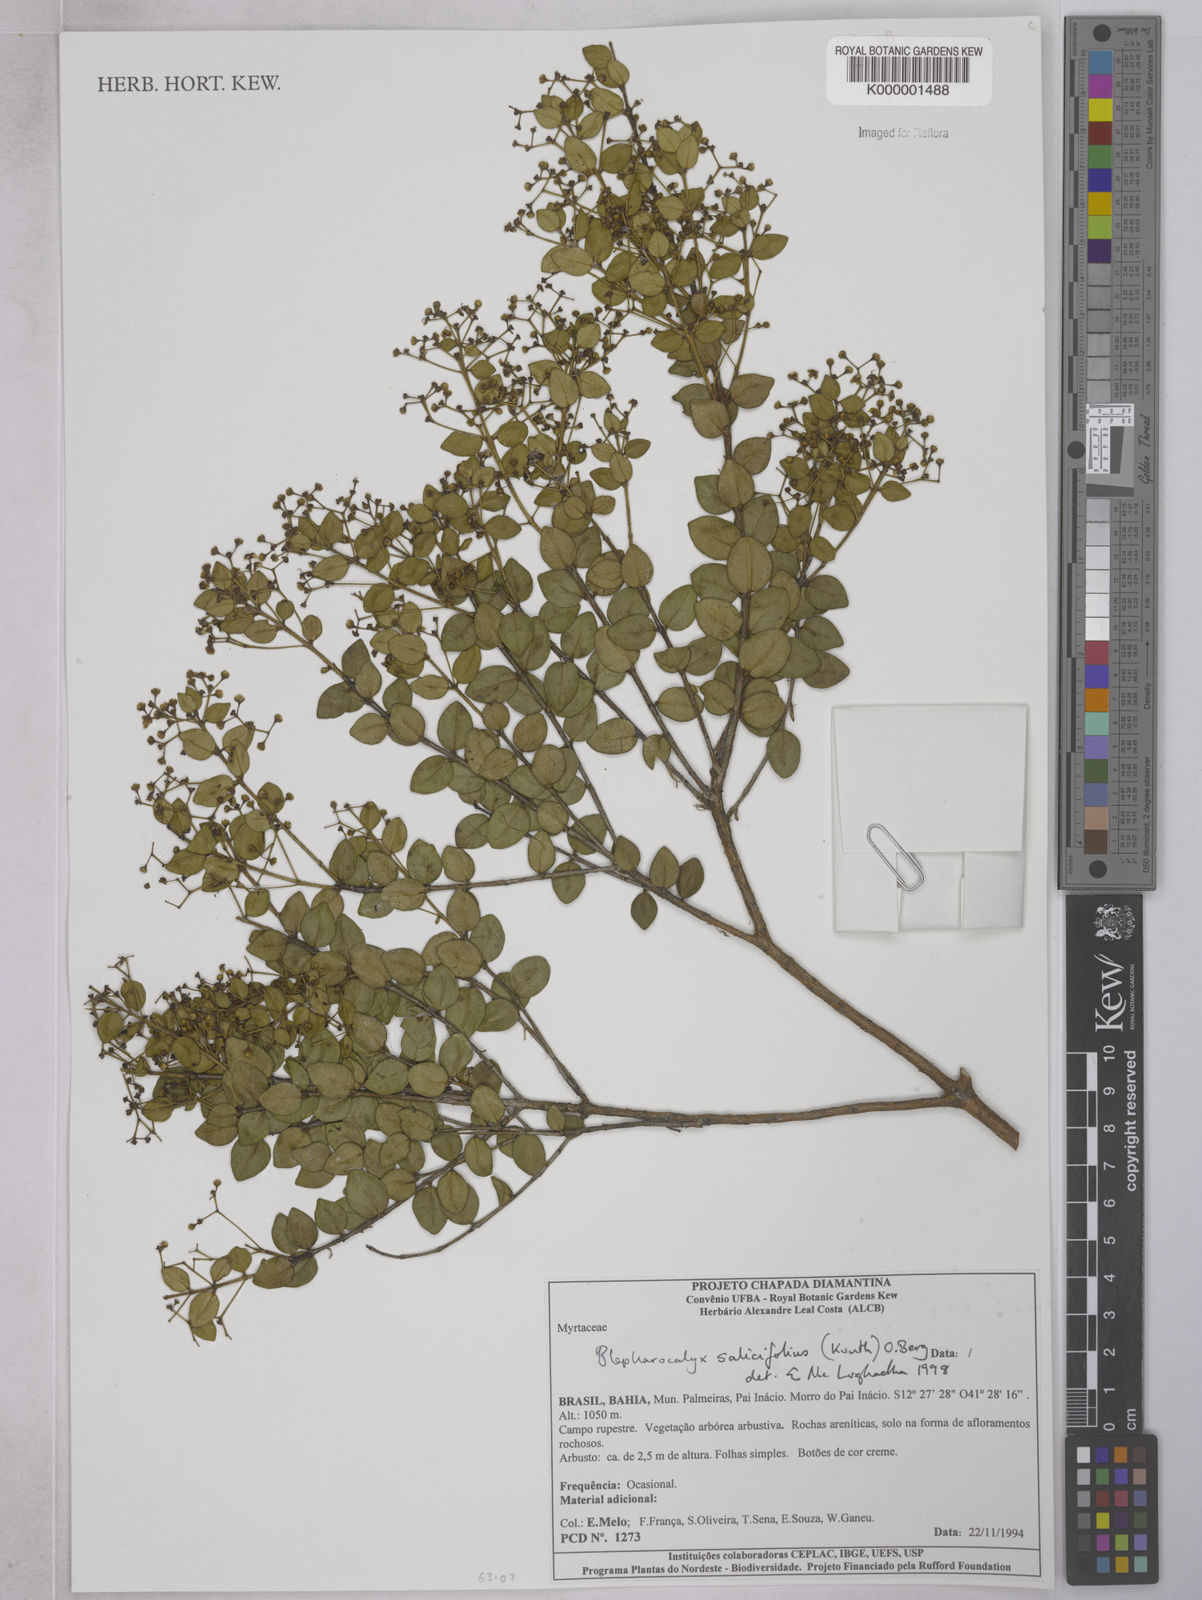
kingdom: Plantae
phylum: Tracheophyta
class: Magnoliopsida
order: Myrtales
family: Myrtaceae
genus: Blepharocalyx
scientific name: Blepharocalyx salicifolius
